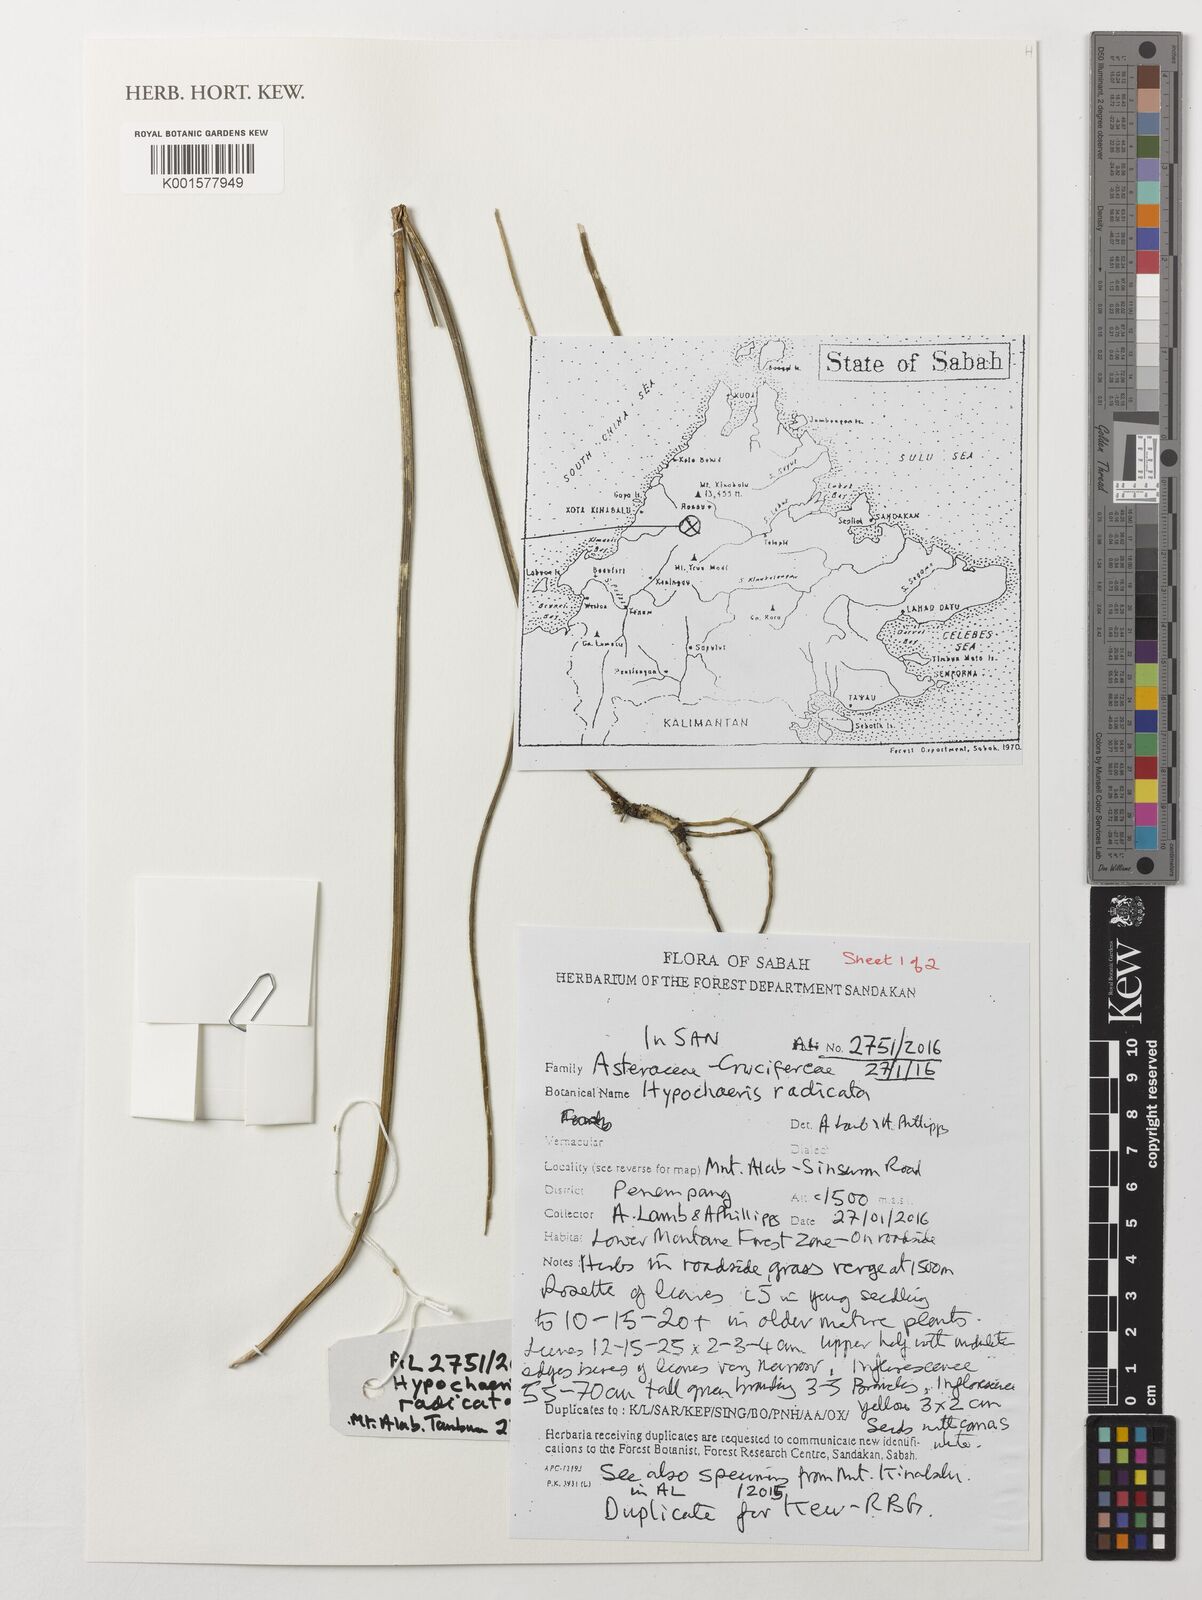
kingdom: Plantae
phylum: Tracheophyta
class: Magnoliopsida
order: Asterales
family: Asteraceae
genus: Hypochaeris
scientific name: Hypochaeris radicata
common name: Flatweed
